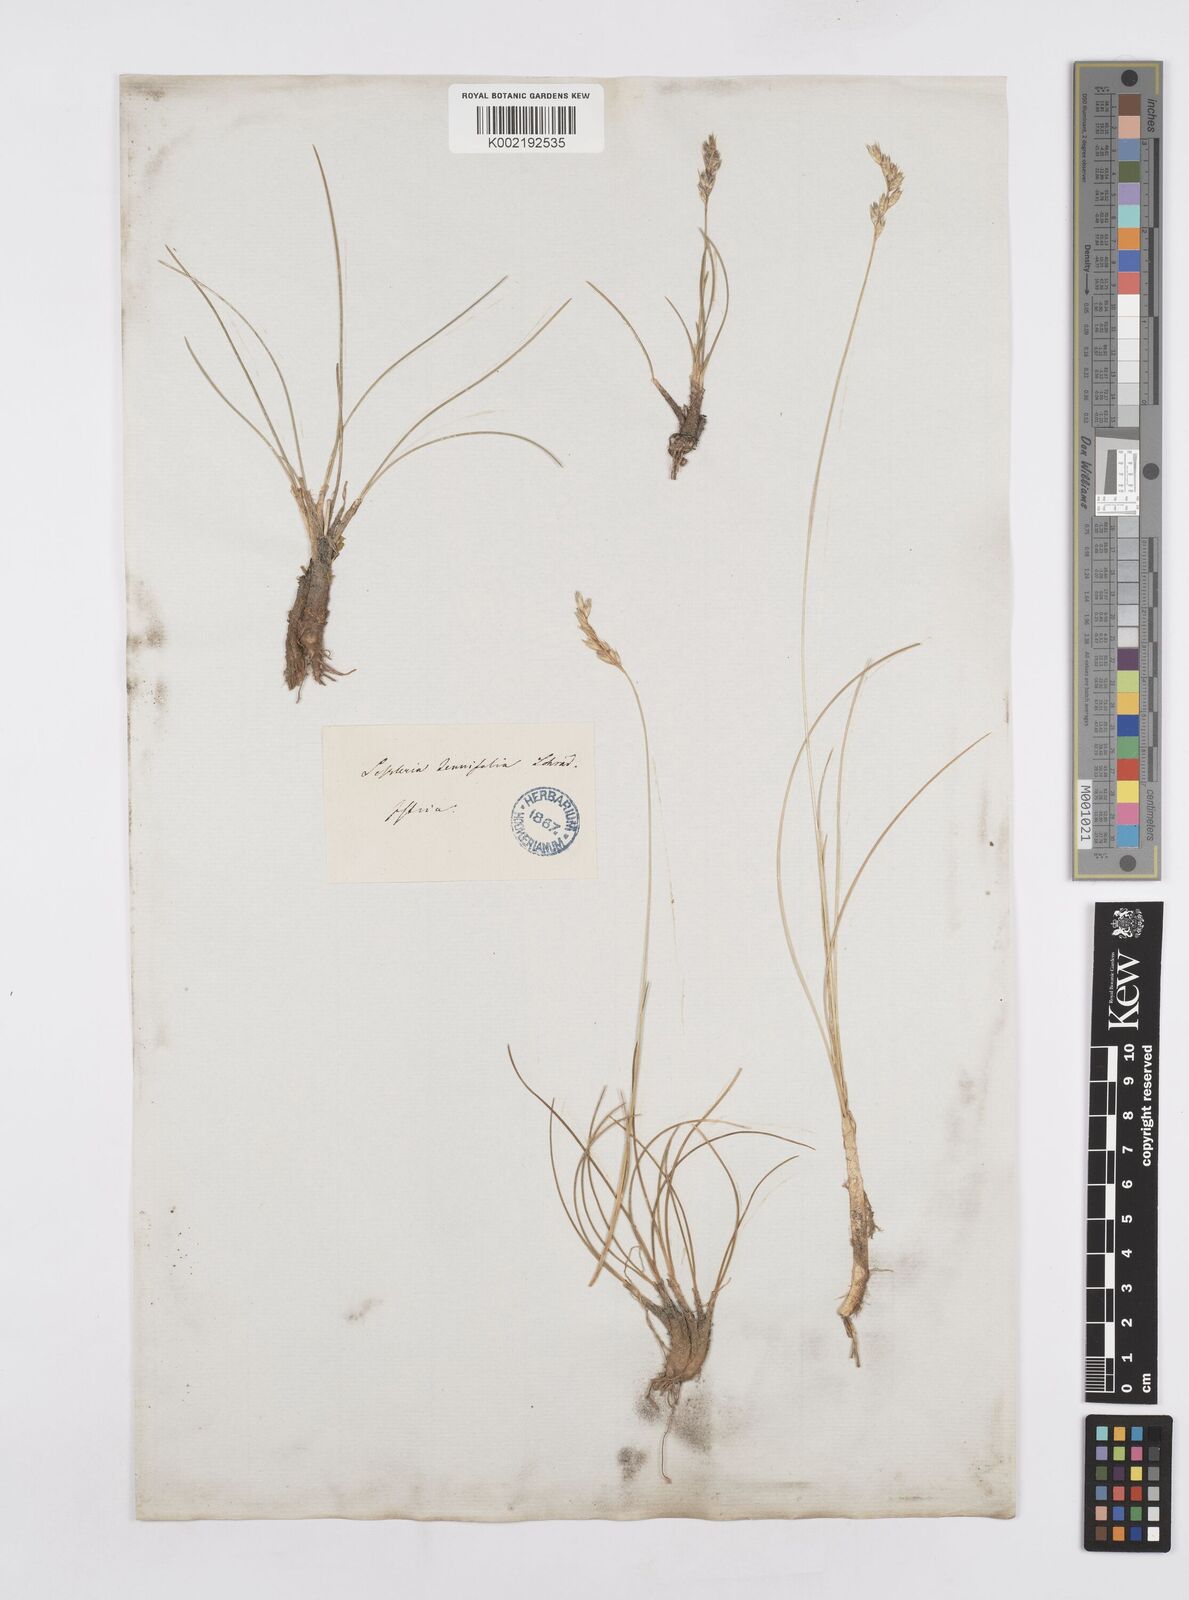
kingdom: Plantae
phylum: Tracheophyta
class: Liliopsida
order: Poales
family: Poaceae
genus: Sesleria
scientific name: Sesleria juncifolia
